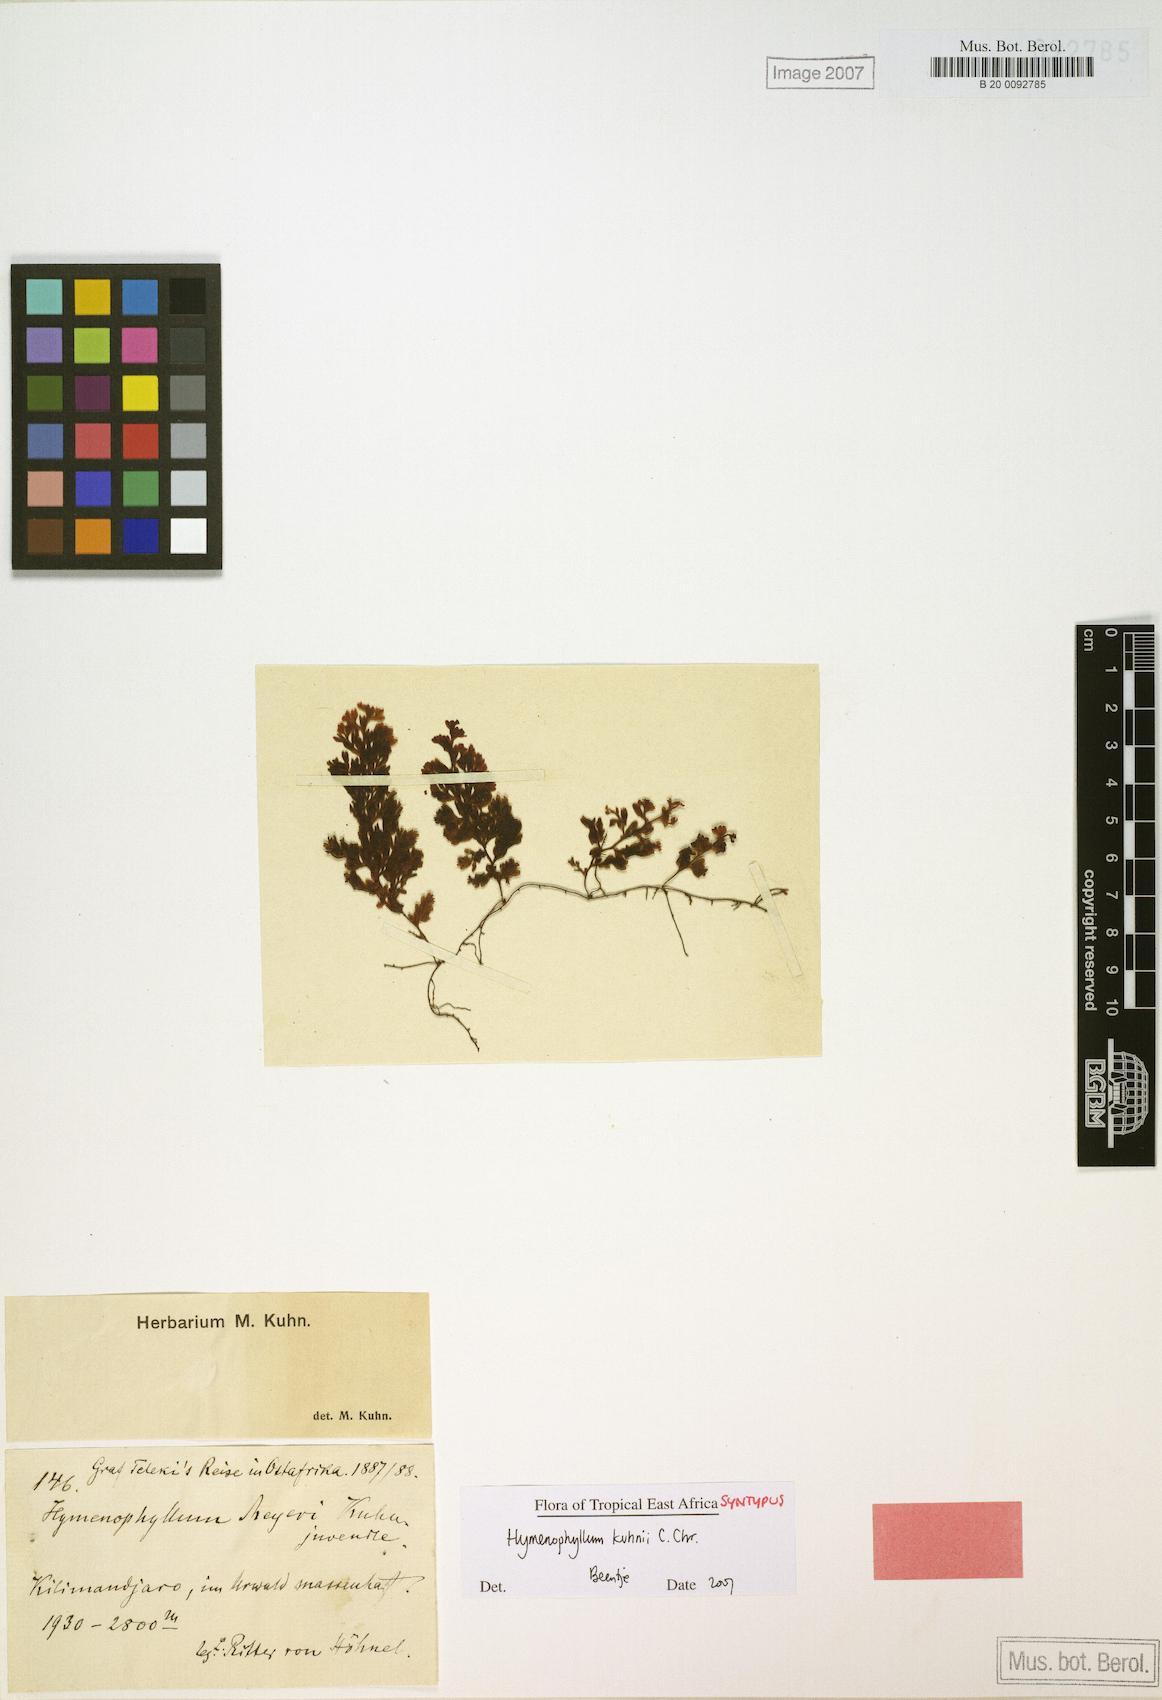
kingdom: Plantae
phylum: Tracheophyta
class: Polypodiopsida
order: Hymenophyllales
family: Hymenophyllaceae
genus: Hymenophyllum
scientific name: Hymenophyllum kuhnii
